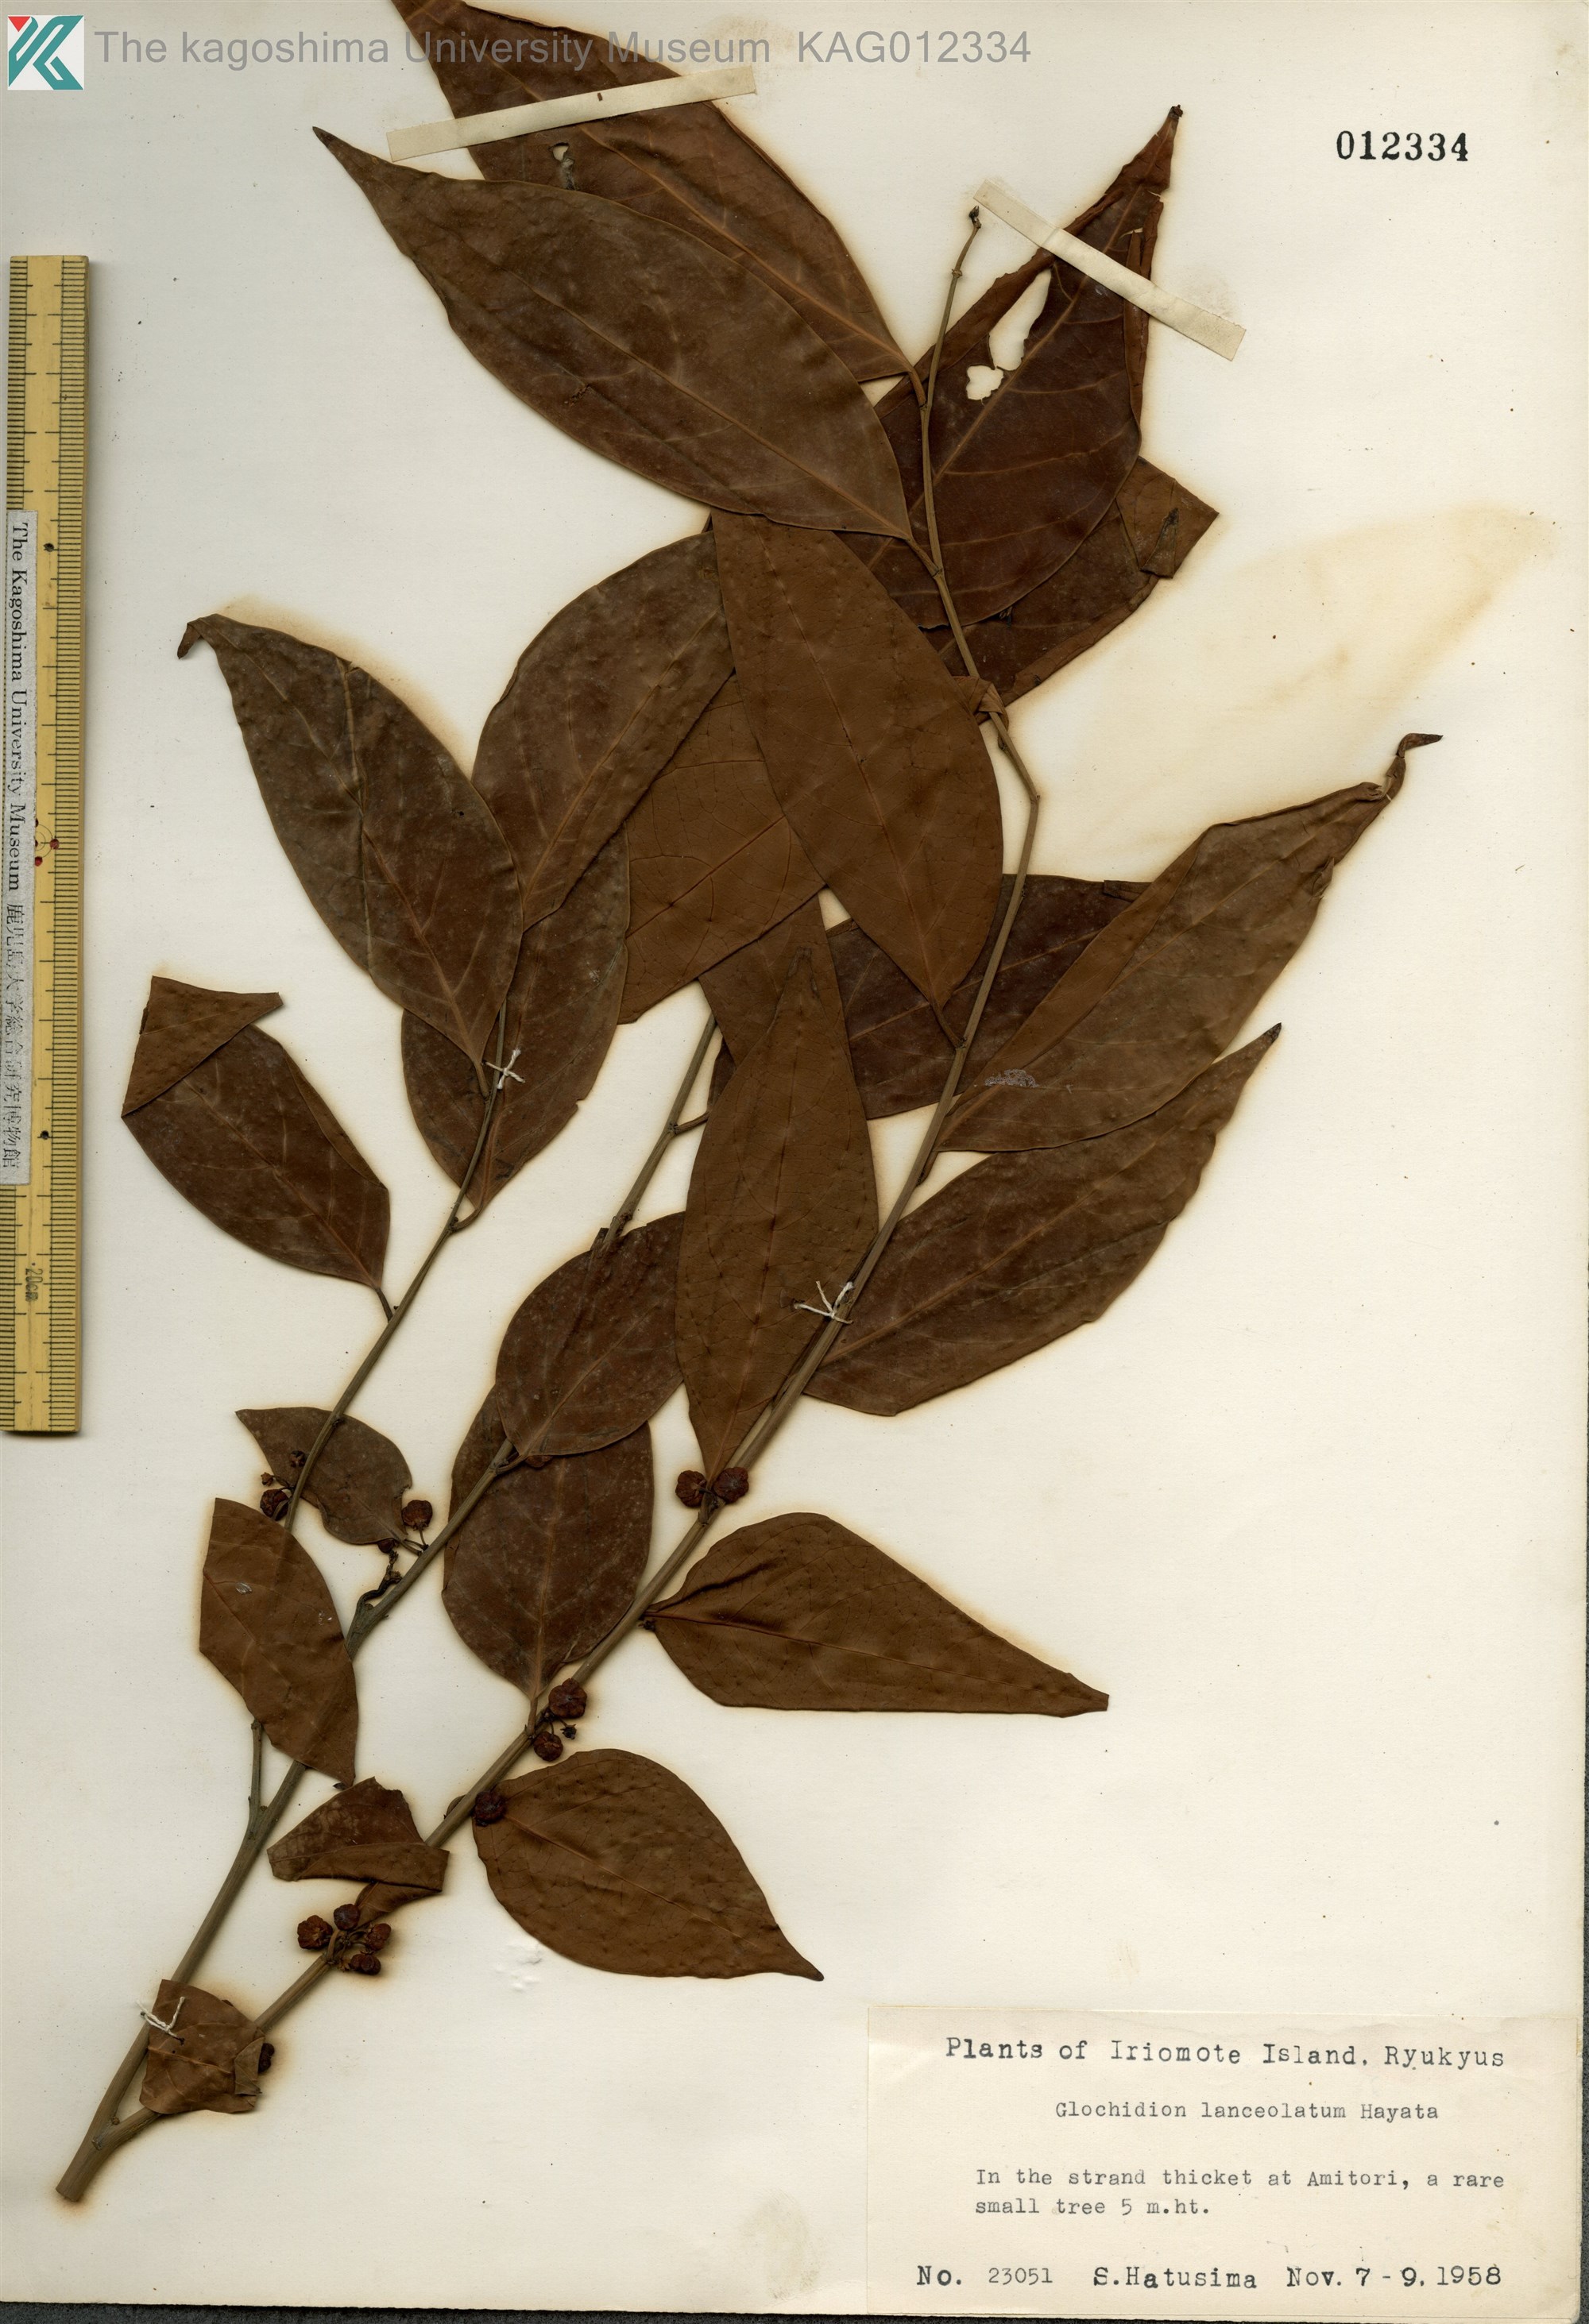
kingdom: Plantae
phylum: Tracheophyta
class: Magnoliopsida
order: Malpighiales
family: Phyllanthaceae
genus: Glochidion
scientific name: Glochidion lanceolatum
